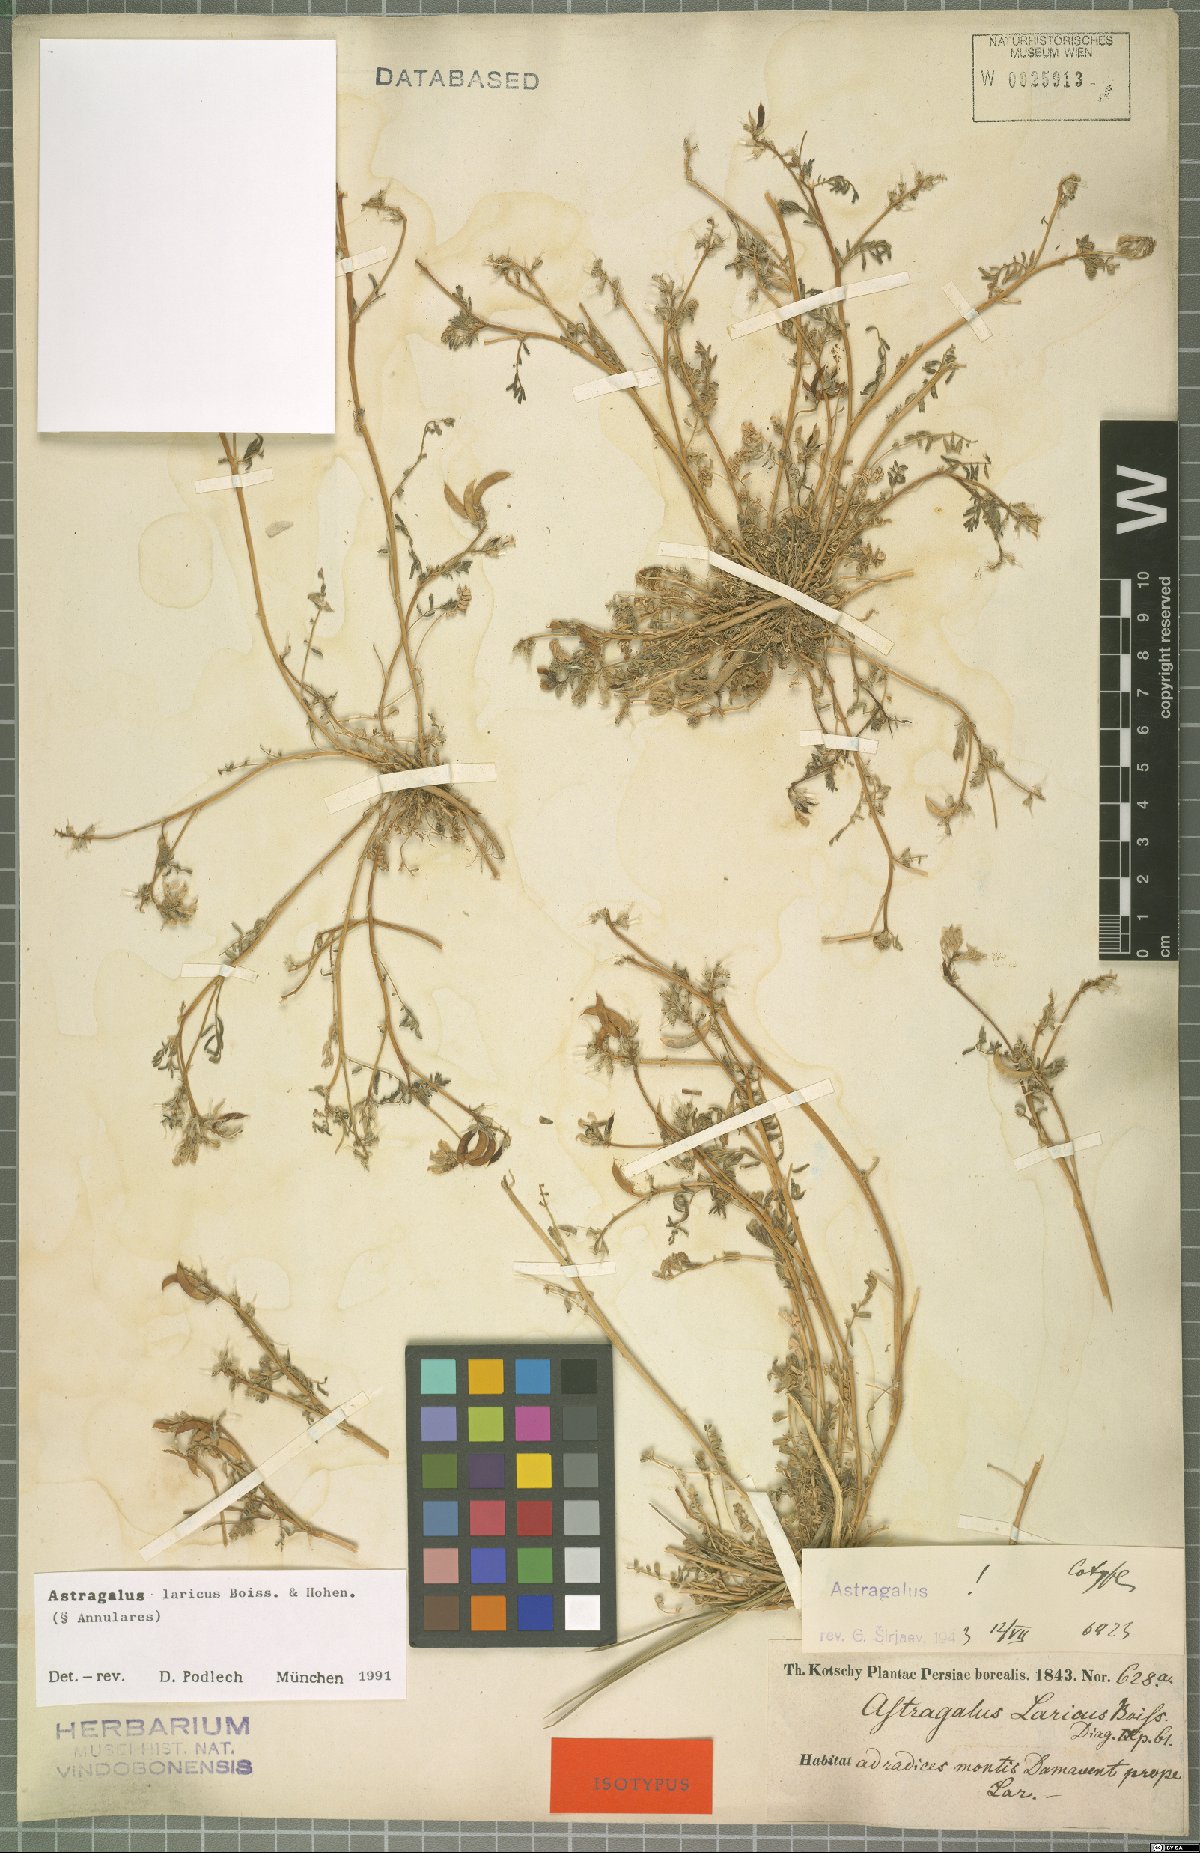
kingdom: Plantae
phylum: Tracheophyta
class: Magnoliopsida
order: Fabales
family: Fabaceae
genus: Astragalus
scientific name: Astragalus laricus
